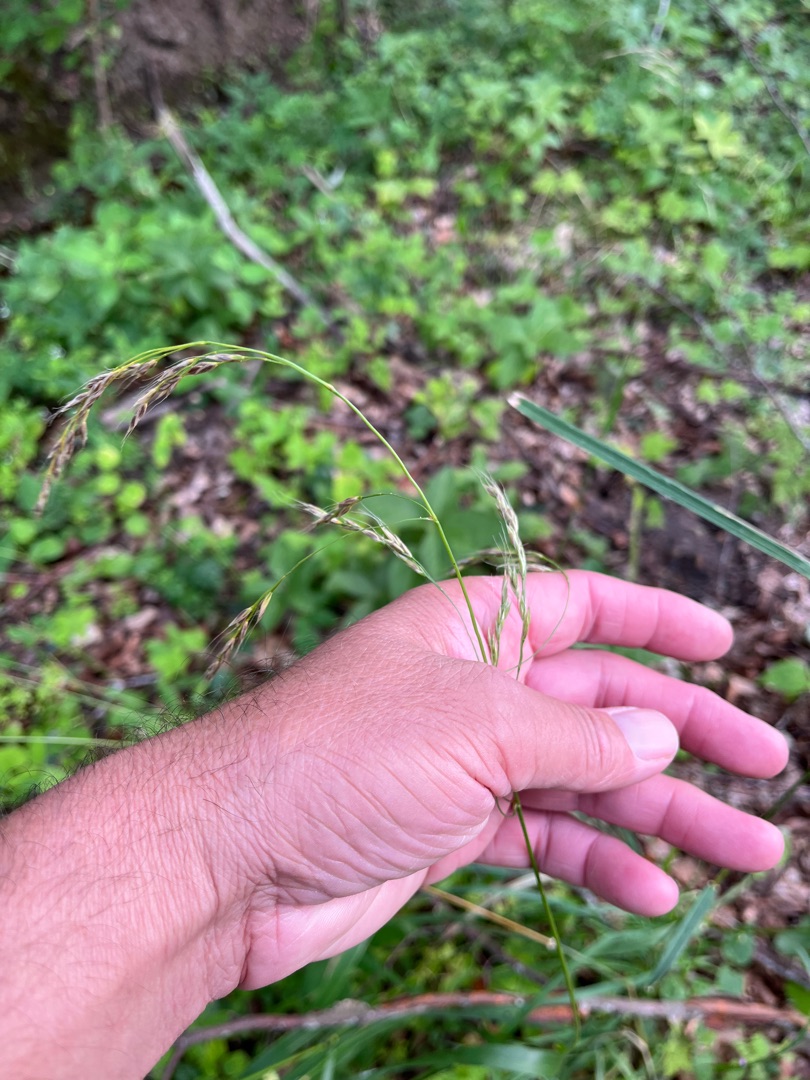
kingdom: Plantae
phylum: Tracheophyta
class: Liliopsida
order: Poales
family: Poaceae
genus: Lolium
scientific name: Lolium giganteum
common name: Kæmpe-svingel
